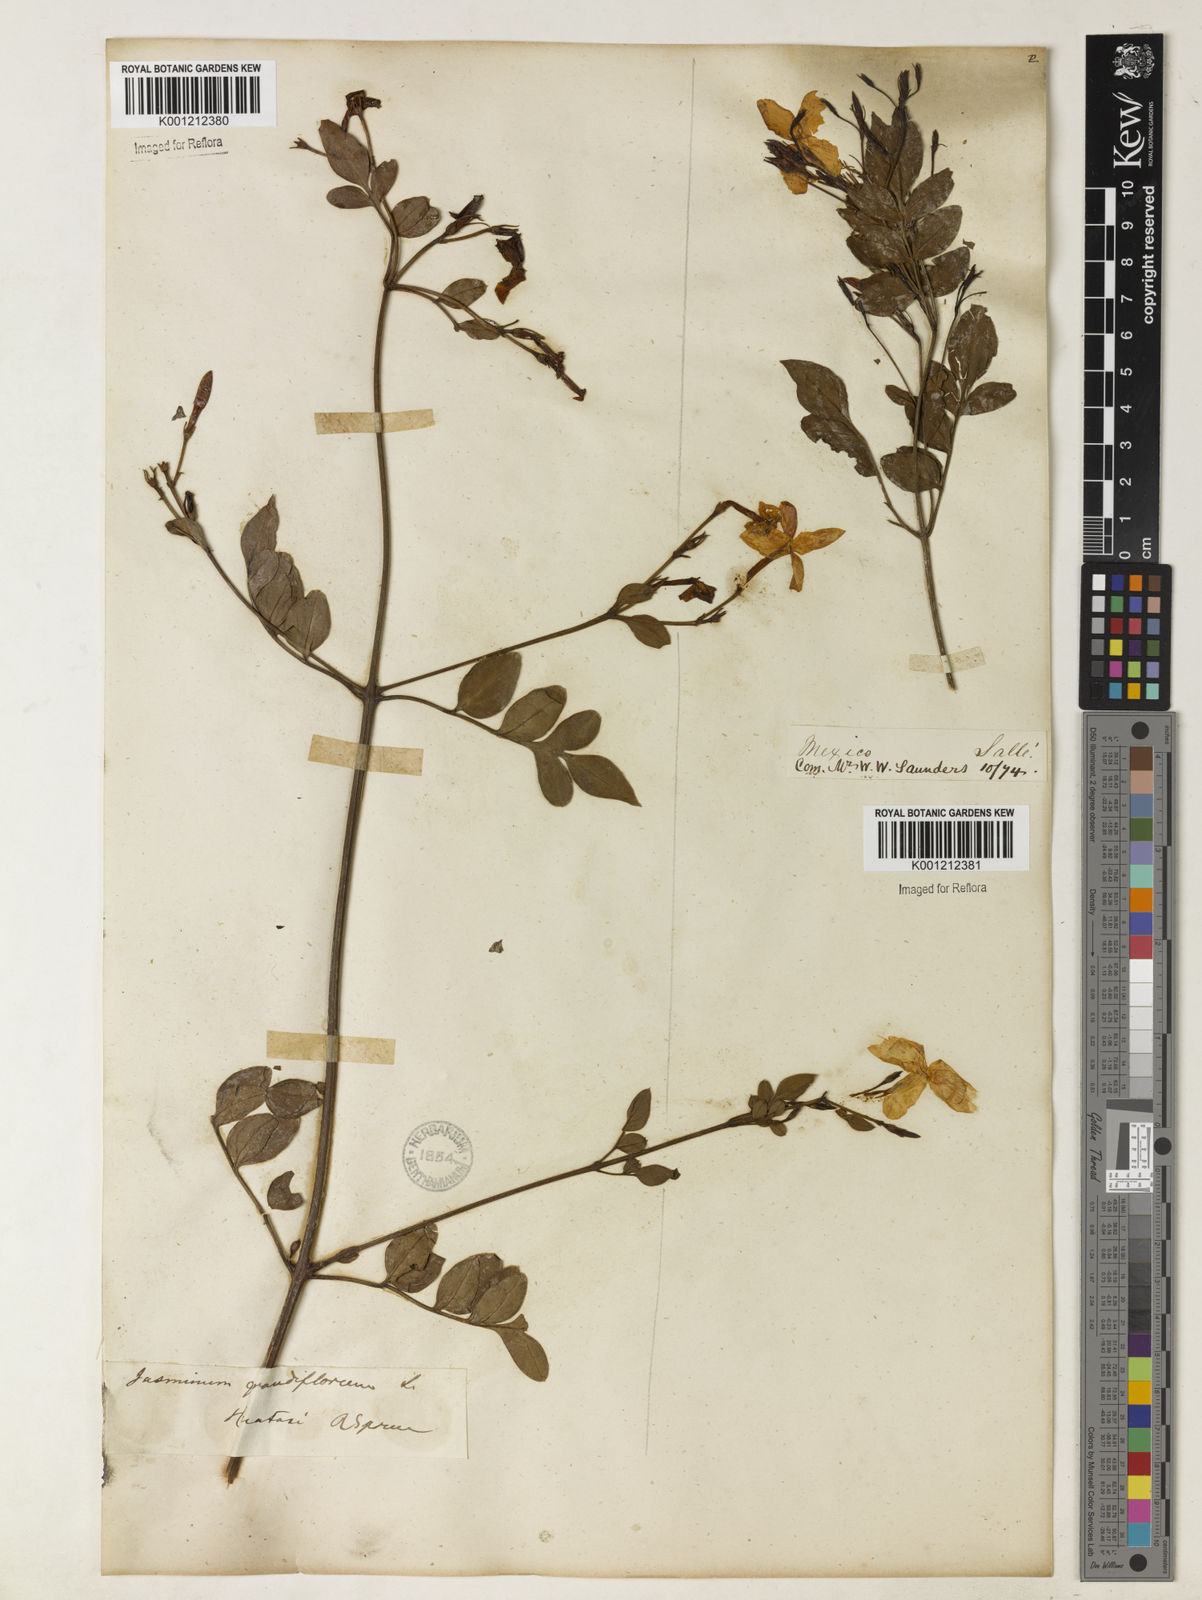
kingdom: Plantae
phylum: Tracheophyta
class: Magnoliopsida
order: Lamiales
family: Oleaceae
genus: Jasminum
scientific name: Jasminum grandiflorum
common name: Catalonian jasmine
